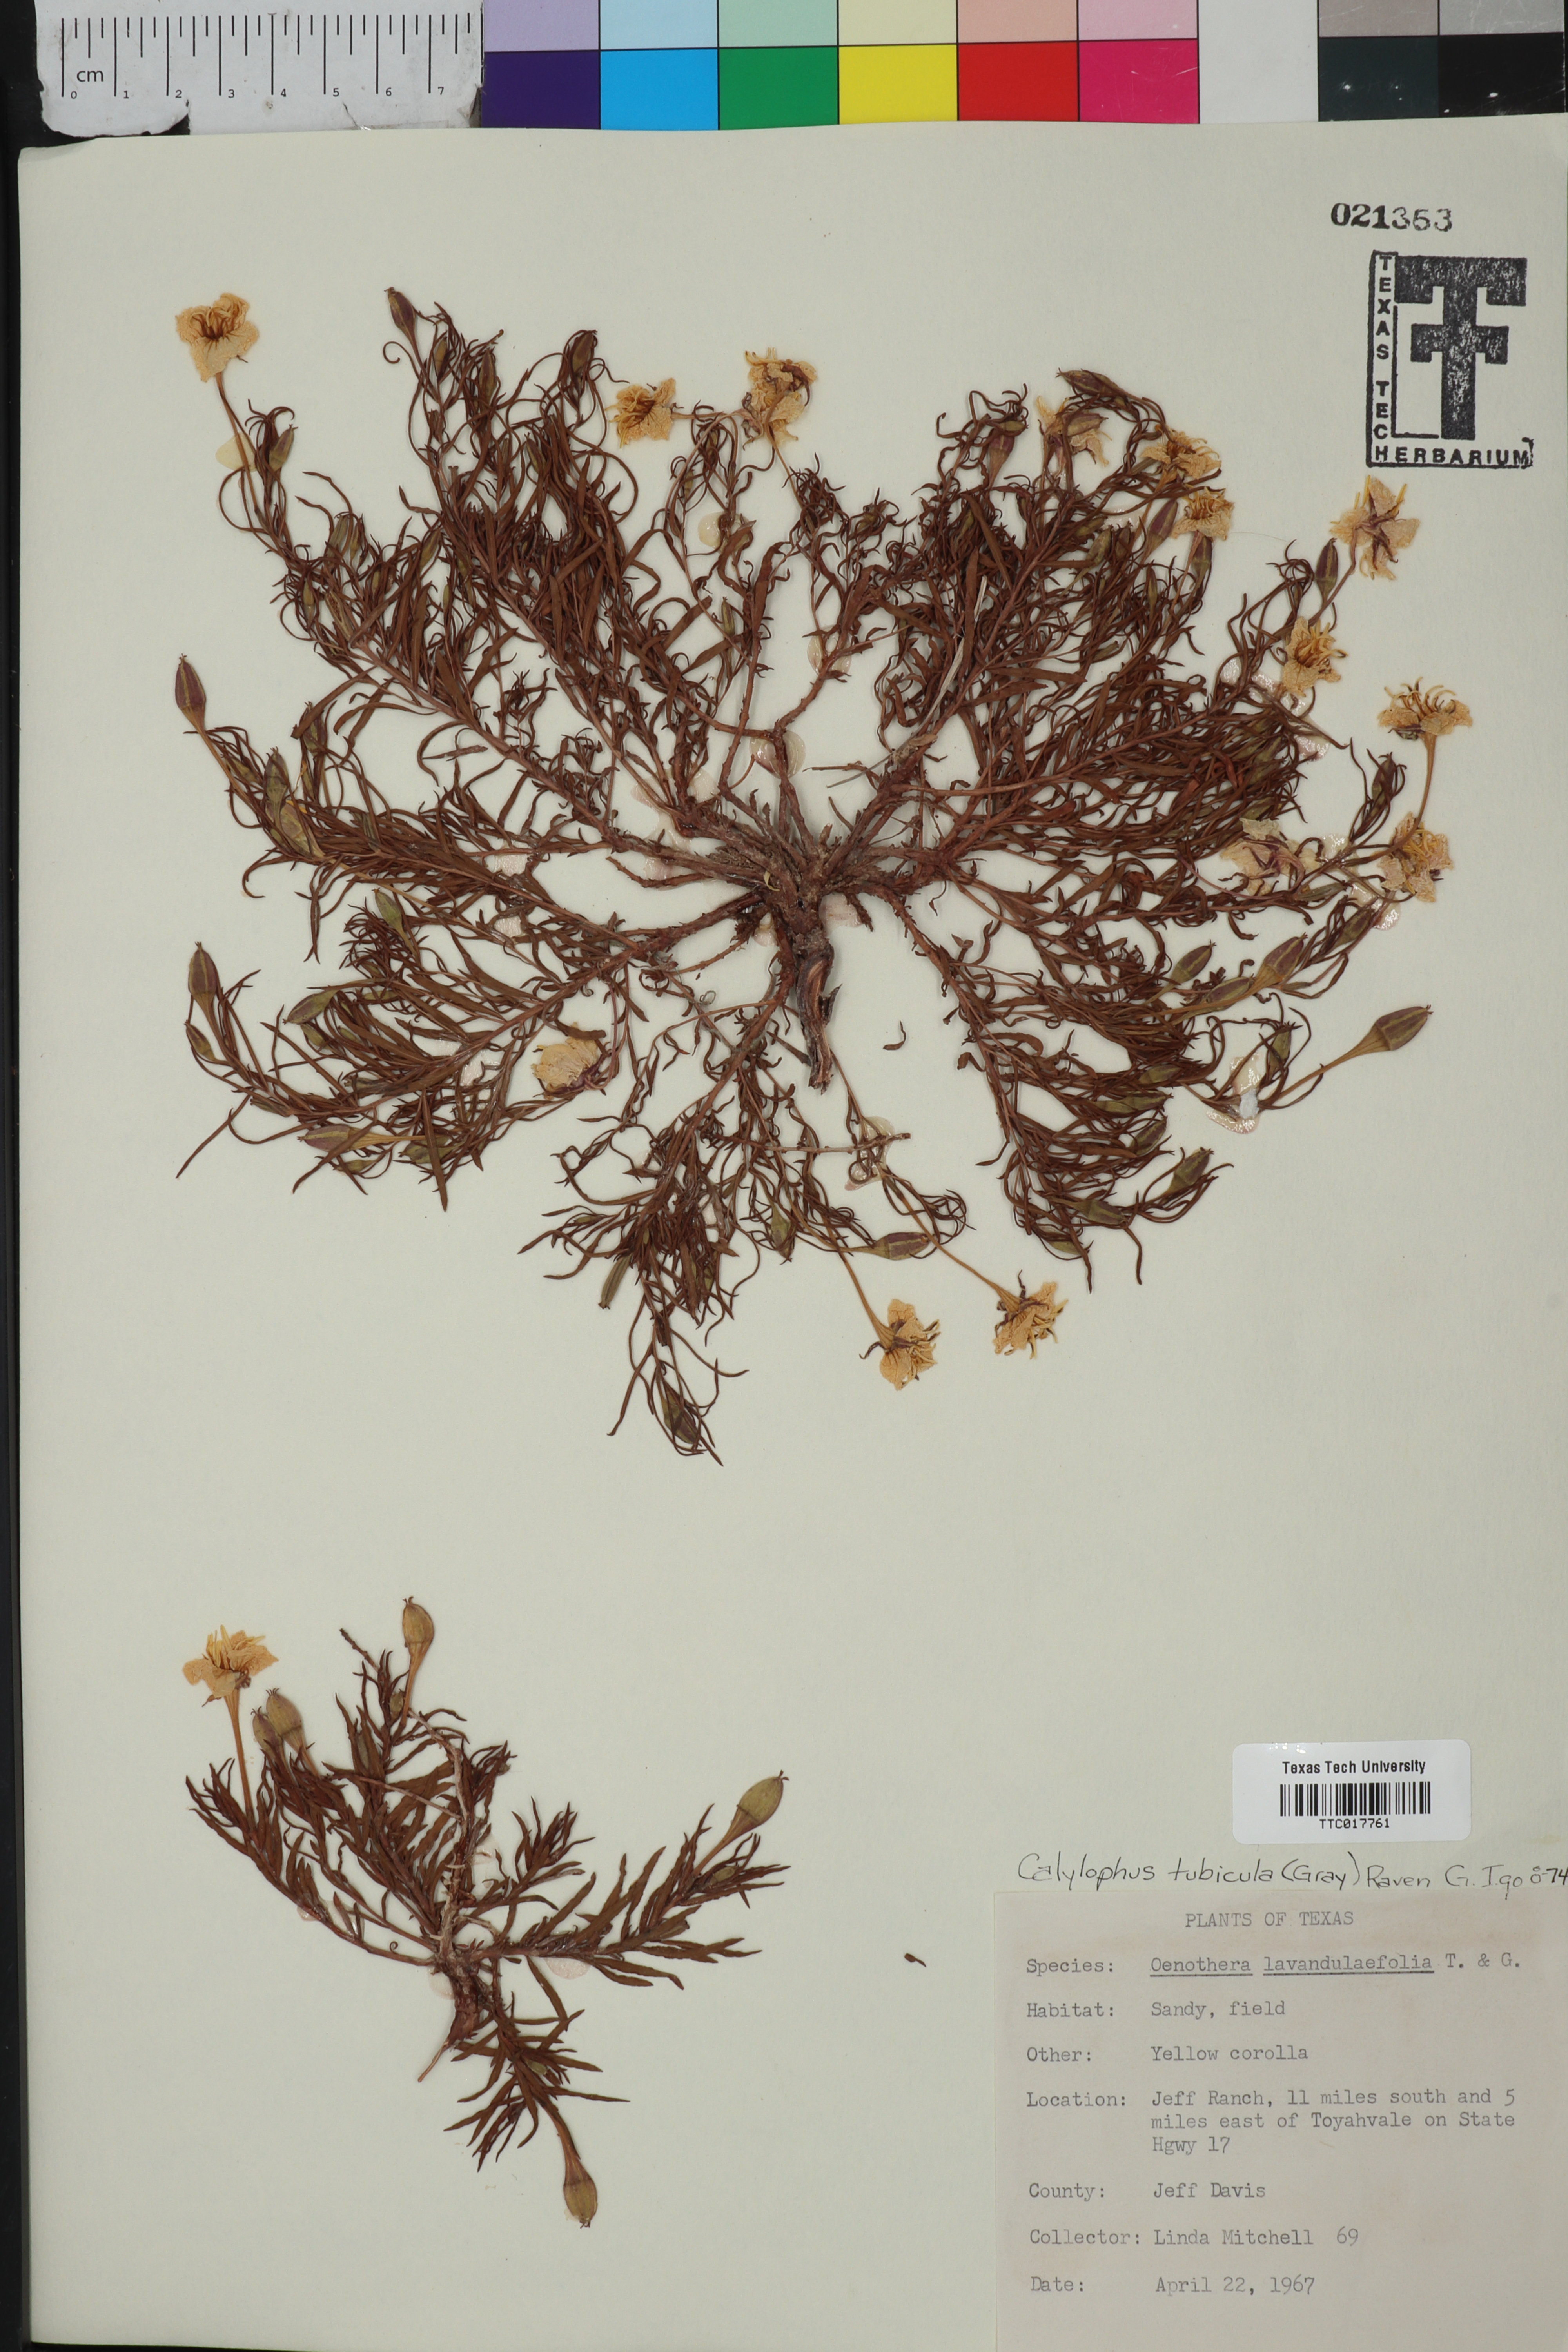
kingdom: Plantae
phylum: Tracheophyta
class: Magnoliopsida
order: Myrtales
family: Onagraceae
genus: Oenothera
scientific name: Oenothera hartwegii
